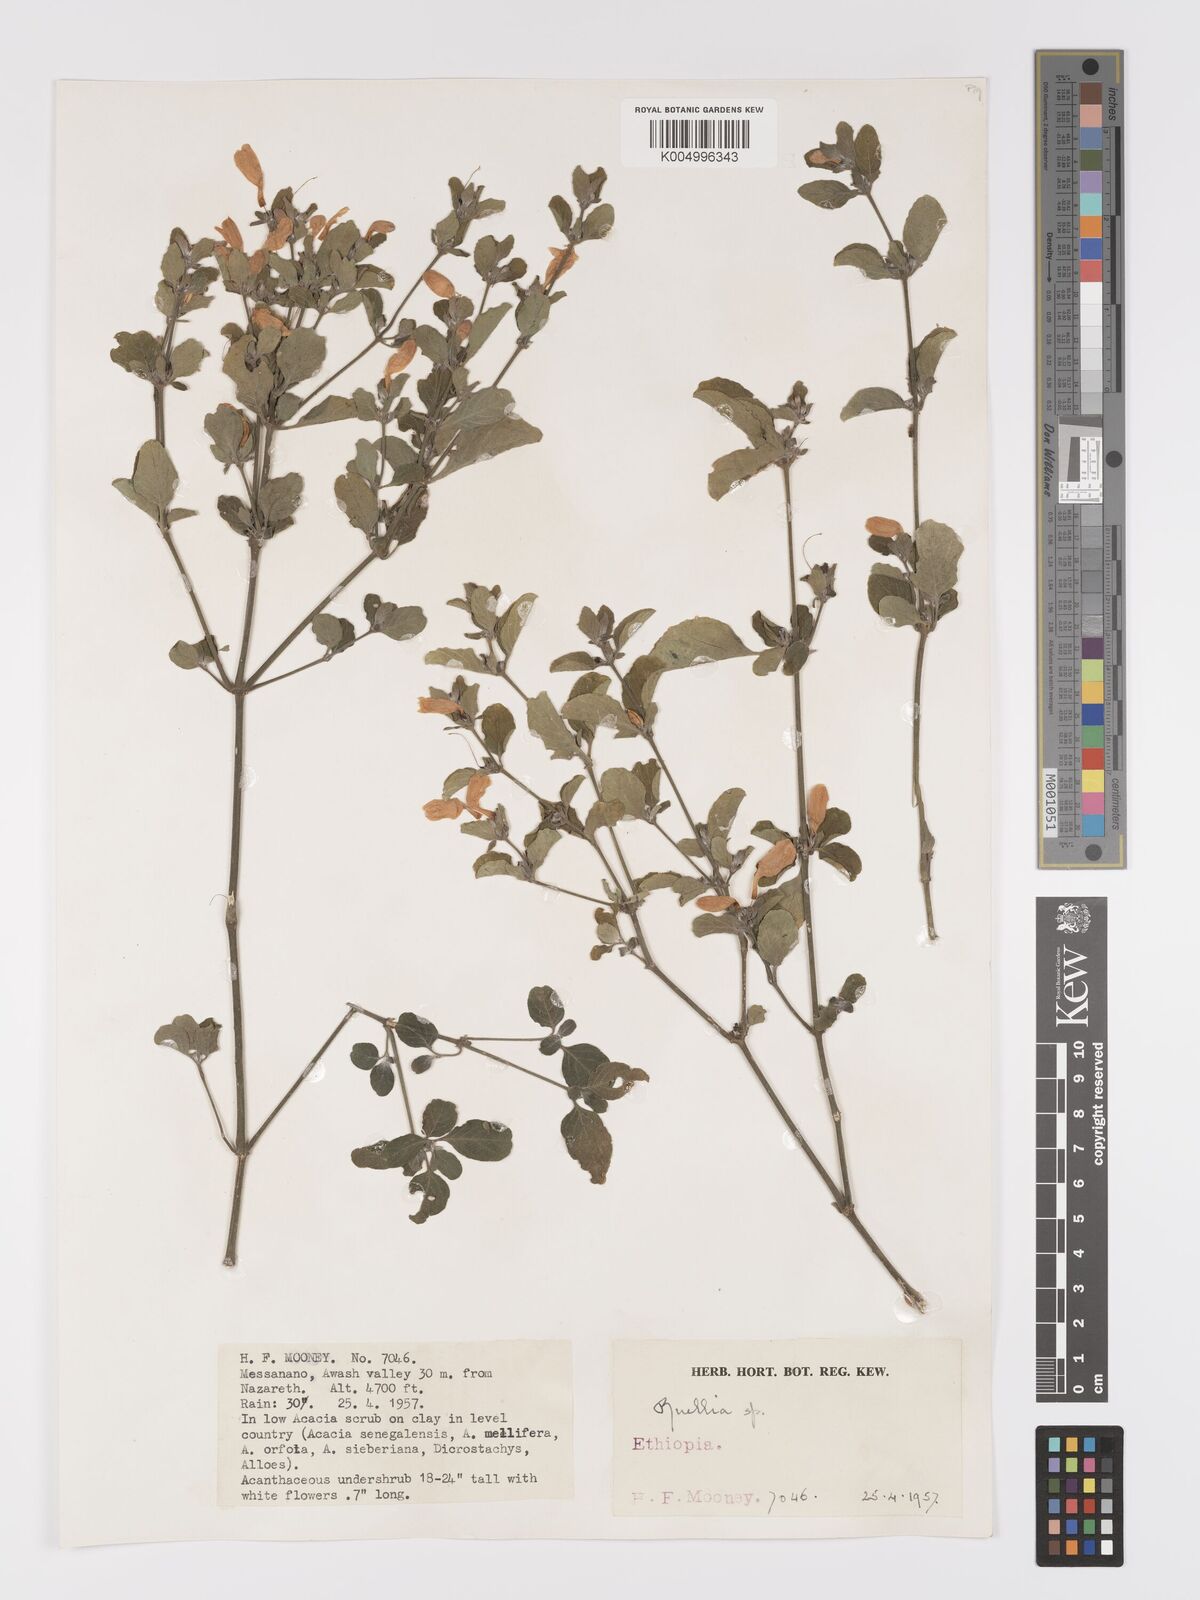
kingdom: Plantae
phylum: Tracheophyta
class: Magnoliopsida
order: Lamiales
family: Acanthaceae
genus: Ruellia
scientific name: Ruellia patula
